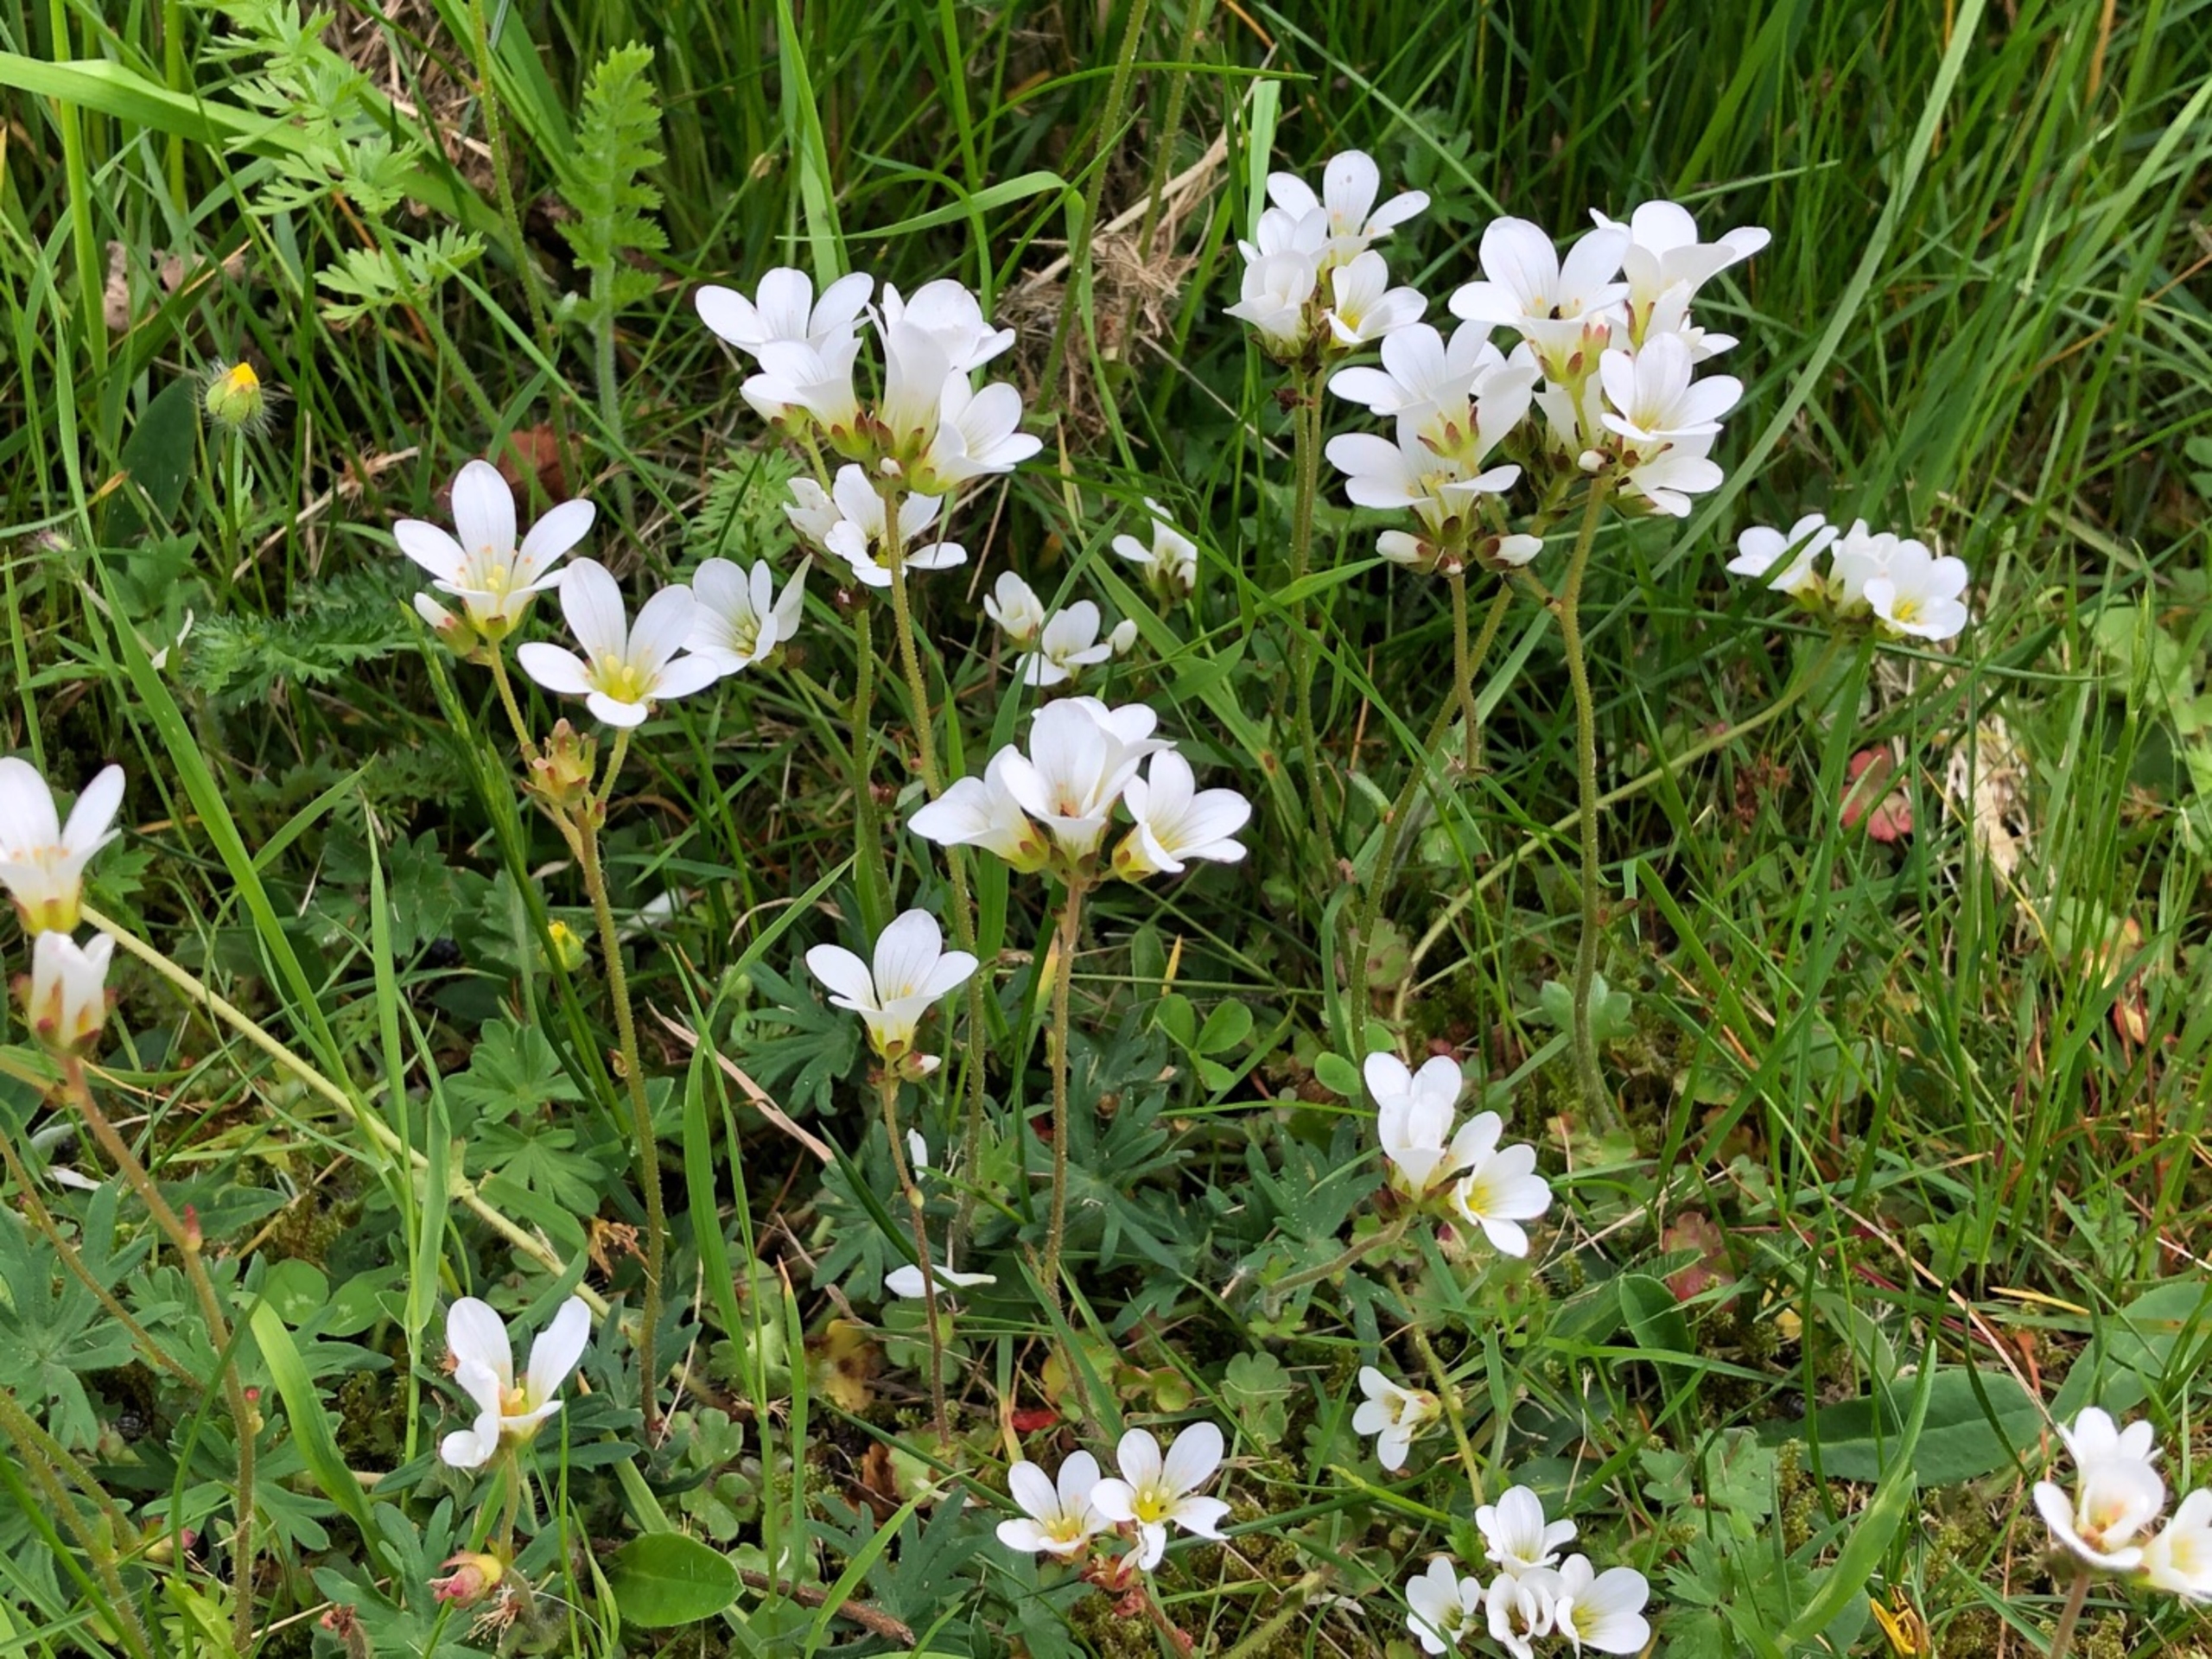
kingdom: Plantae
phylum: Tracheophyta
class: Magnoliopsida
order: Saxifragales
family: Saxifragaceae
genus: Saxifraga
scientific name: Saxifraga granulata
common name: Kornet stenbræk
